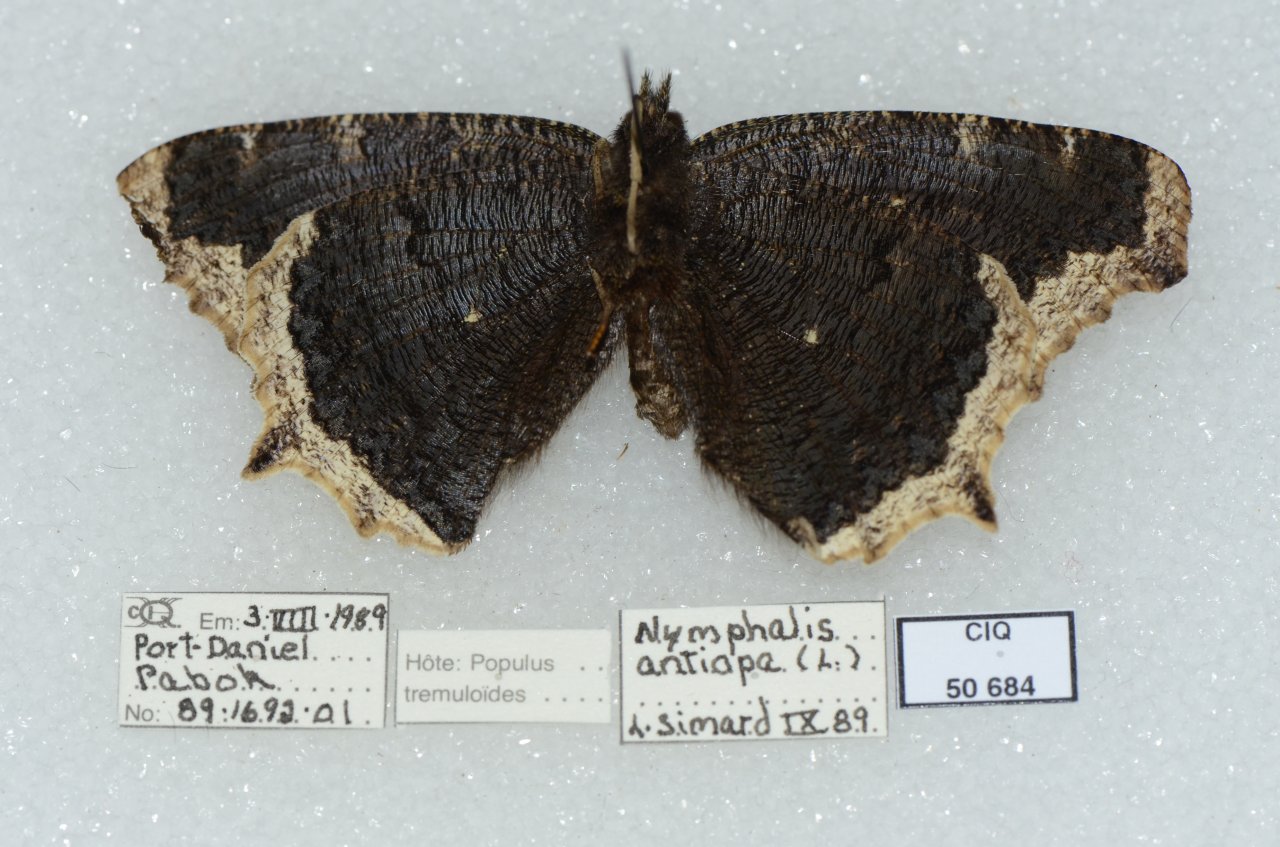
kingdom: Animalia
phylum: Arthropoda
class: Insecta
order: Lepidoptera
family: Nymphalidae
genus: Nymphalis
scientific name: Nymphalis antiopa
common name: Mourning Cloak
